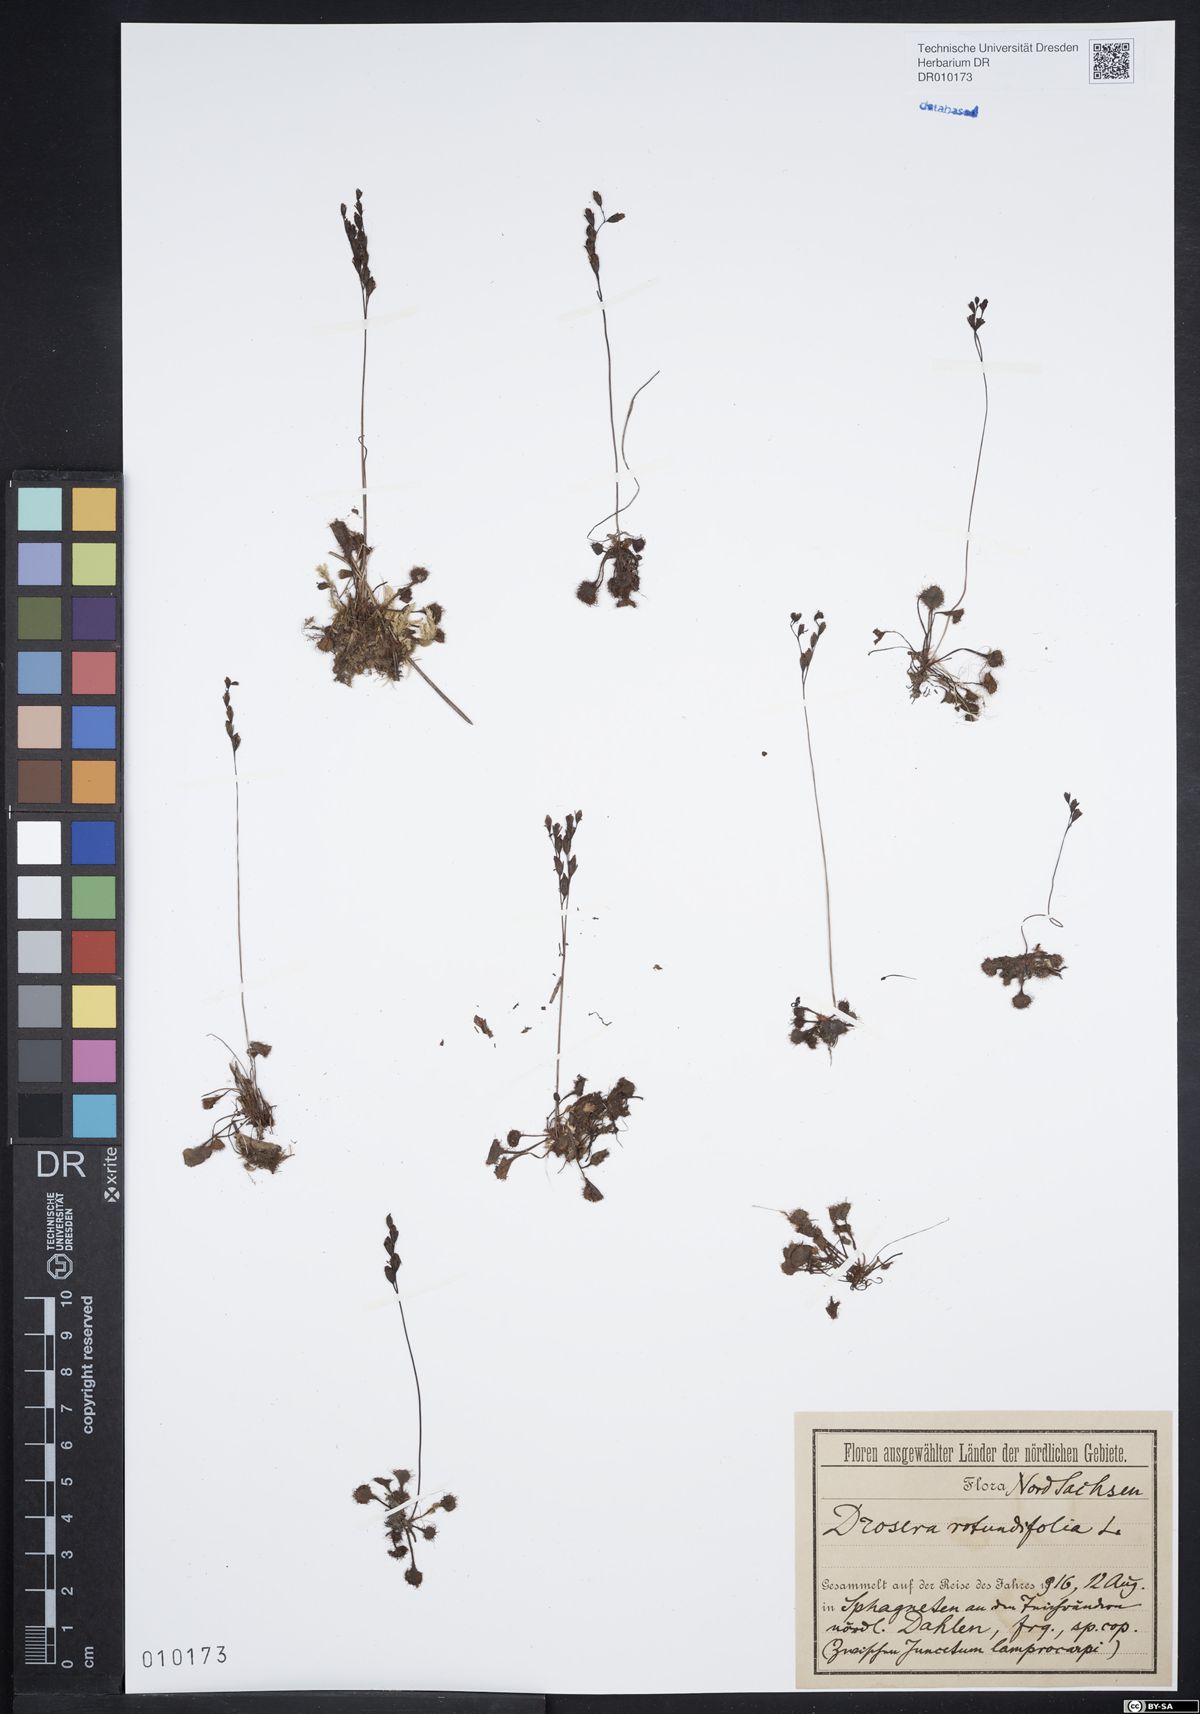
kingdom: Plantae
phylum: Tracheophyta
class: Magnoliopsida
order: Caryophyllales
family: Droseraceae
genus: Drosera
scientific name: Drosera rotundifolia
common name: Round-leaved sundew
